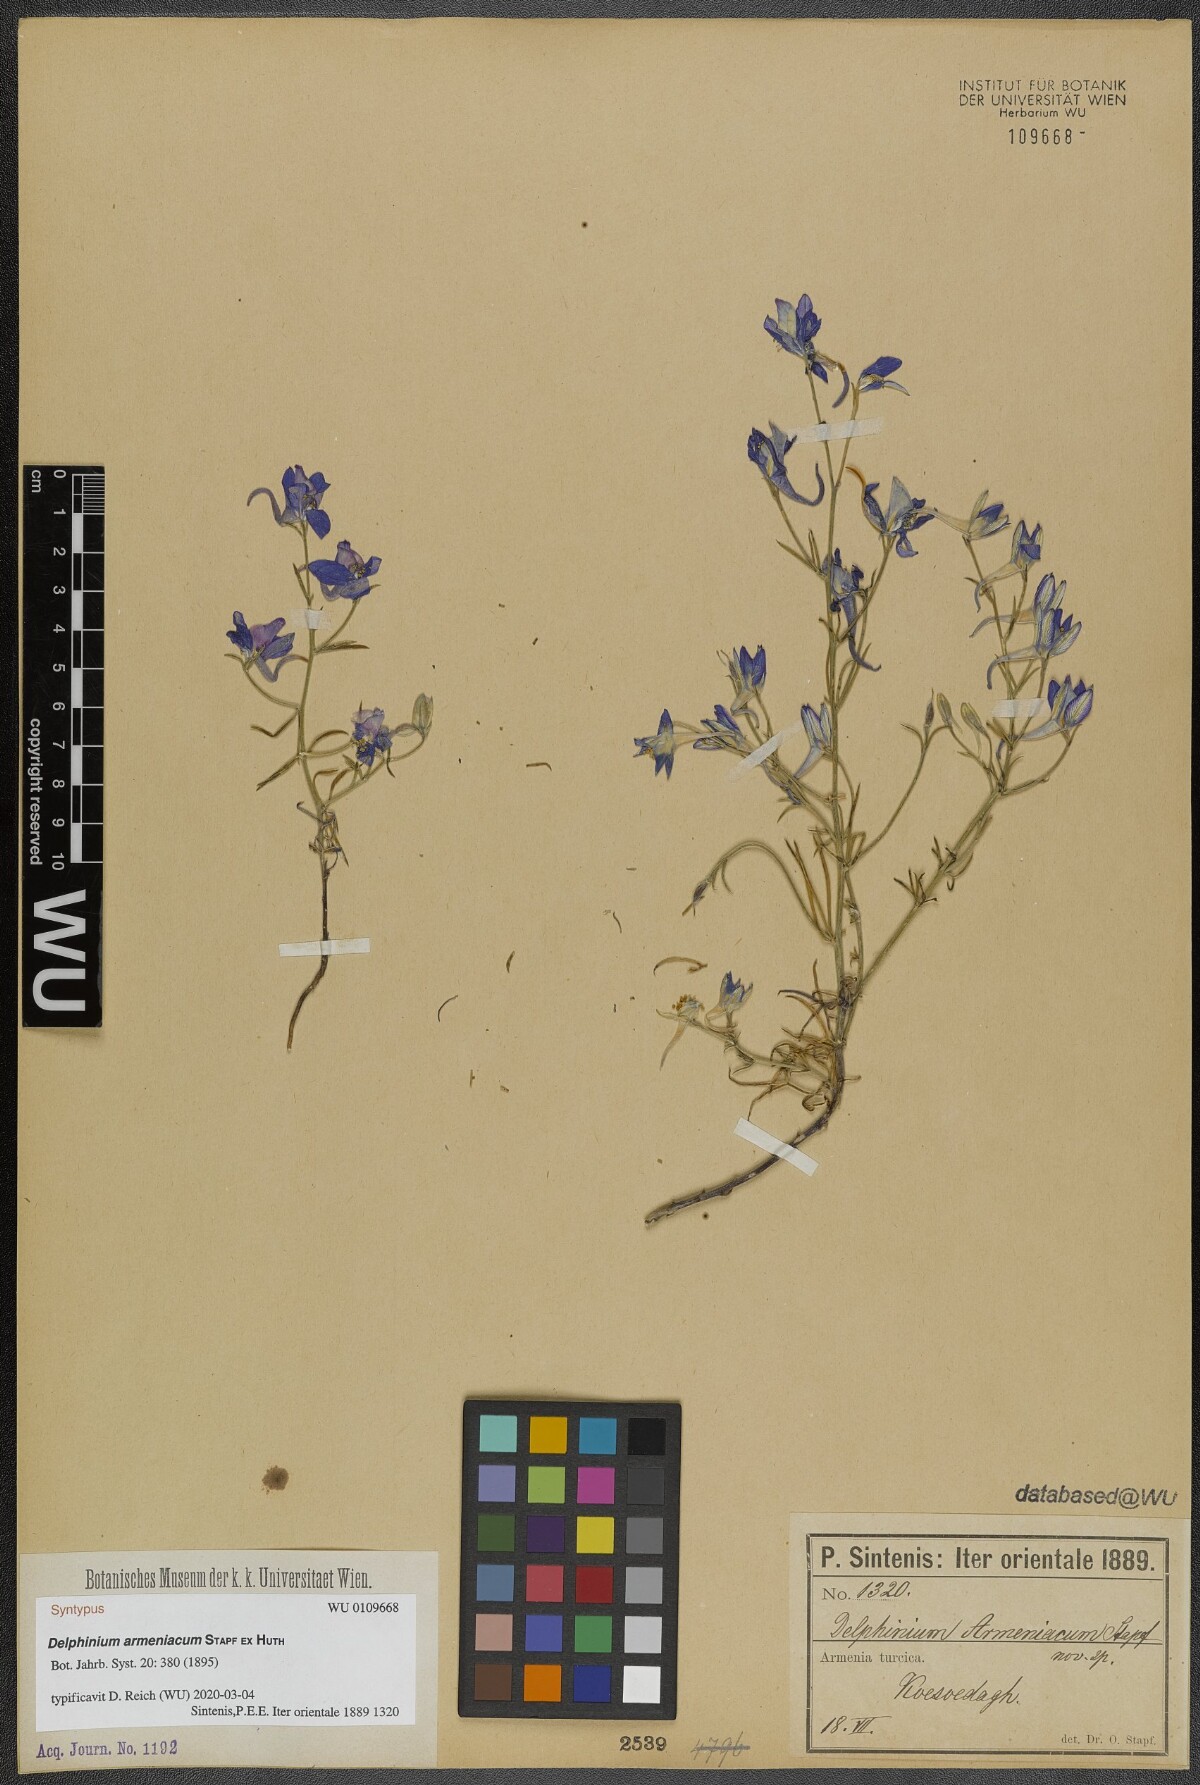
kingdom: Plantae
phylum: Tracheophyta
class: Magnoliopsida
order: Ranunculales
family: Ranunculaceae
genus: Delphinium
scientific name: Delphinium armeniacum
